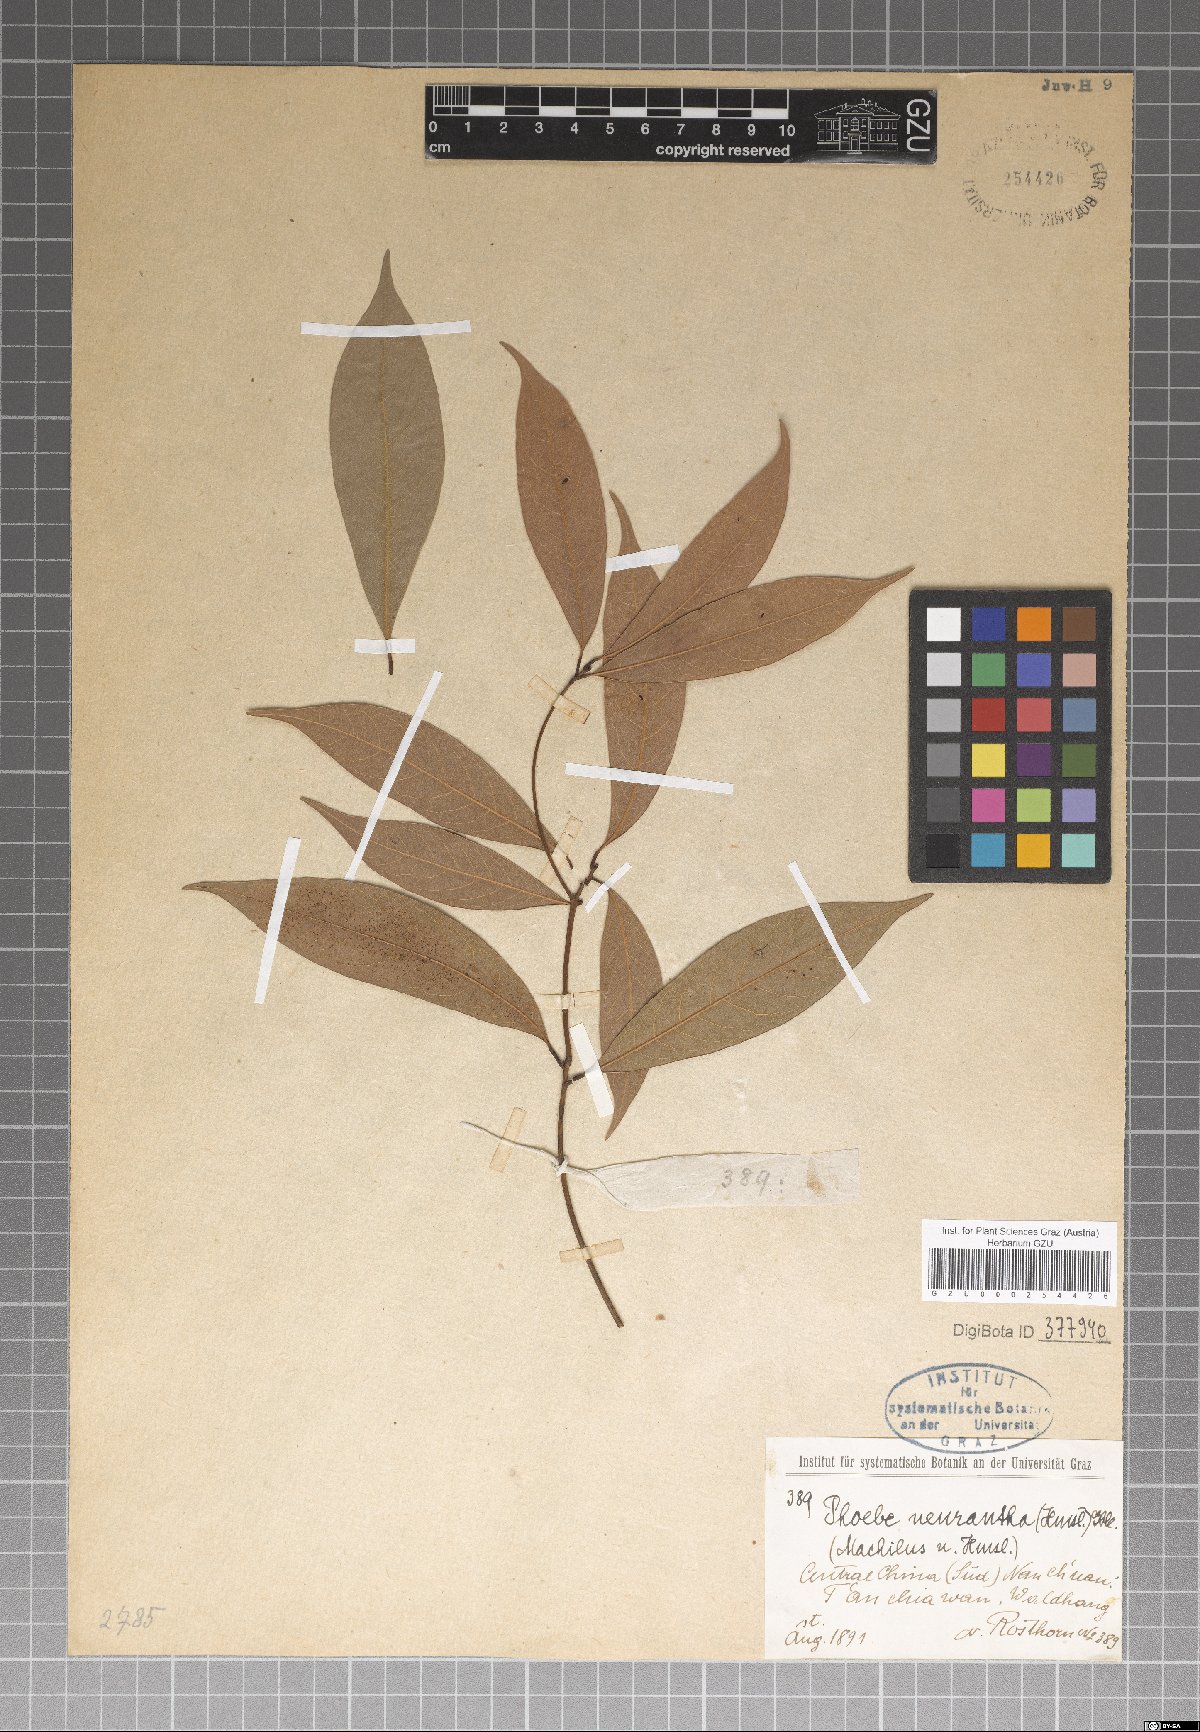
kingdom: Plantae
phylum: Tracheophyta
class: Magnoliopsida
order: Laurales
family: Lauraceae
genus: Phoebe
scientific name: Phoebe neurantha
